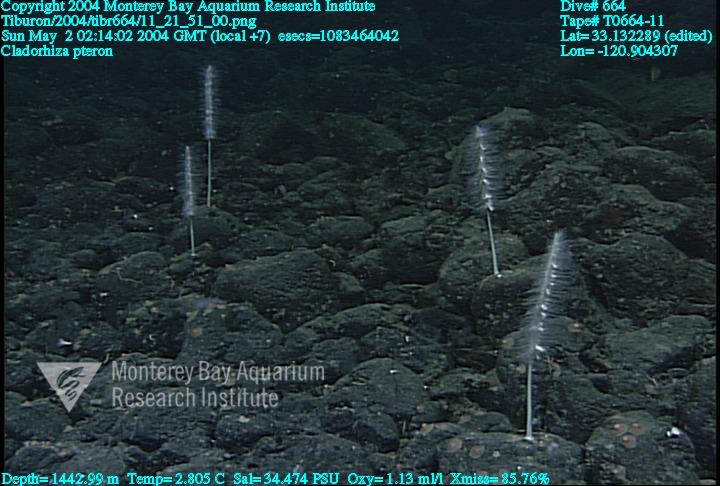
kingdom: Animalia
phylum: Porifera
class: Demospongiae
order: Poecilosclerida
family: Cladorhizidae
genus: Nullarbora
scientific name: Nullarbora pteron
